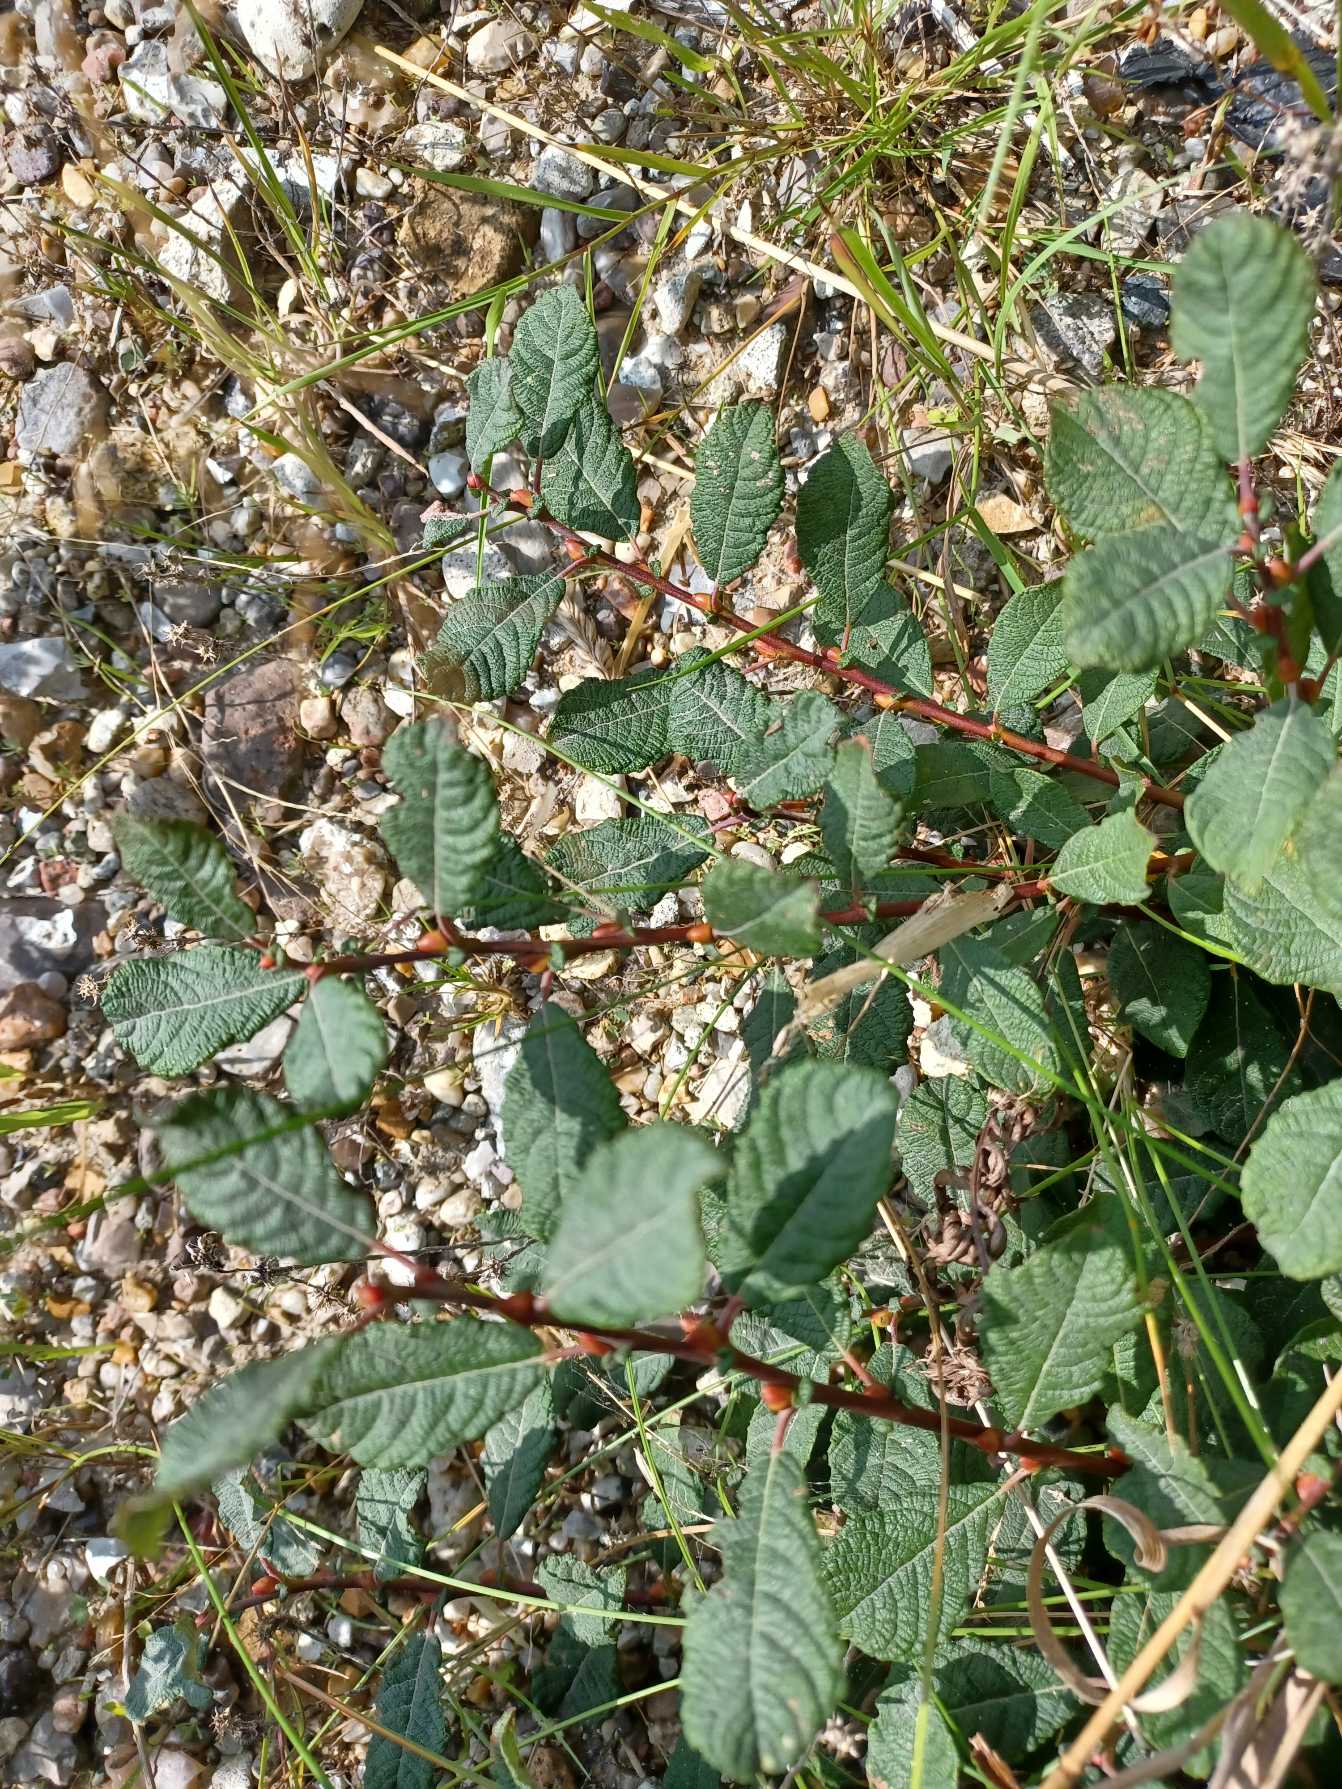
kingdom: Plantae
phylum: Tracheophyta
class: Magnoliopsida
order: Malpighiales
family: Salicaceae
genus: Salix
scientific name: Salix aurita
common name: Øret pil
